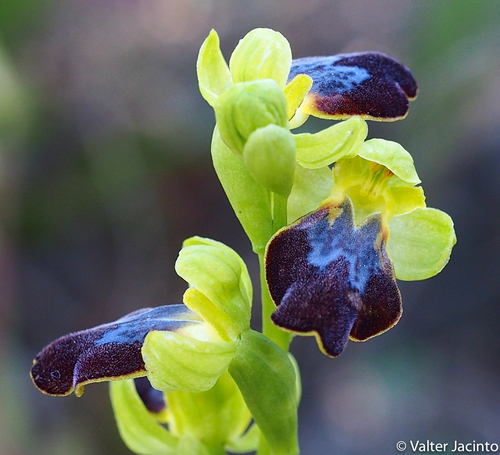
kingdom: Plantae
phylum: Tracheophyta
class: Liliopsida
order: Asparagales
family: Orchidaceae
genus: Ophrys
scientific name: Ophrys fusca
